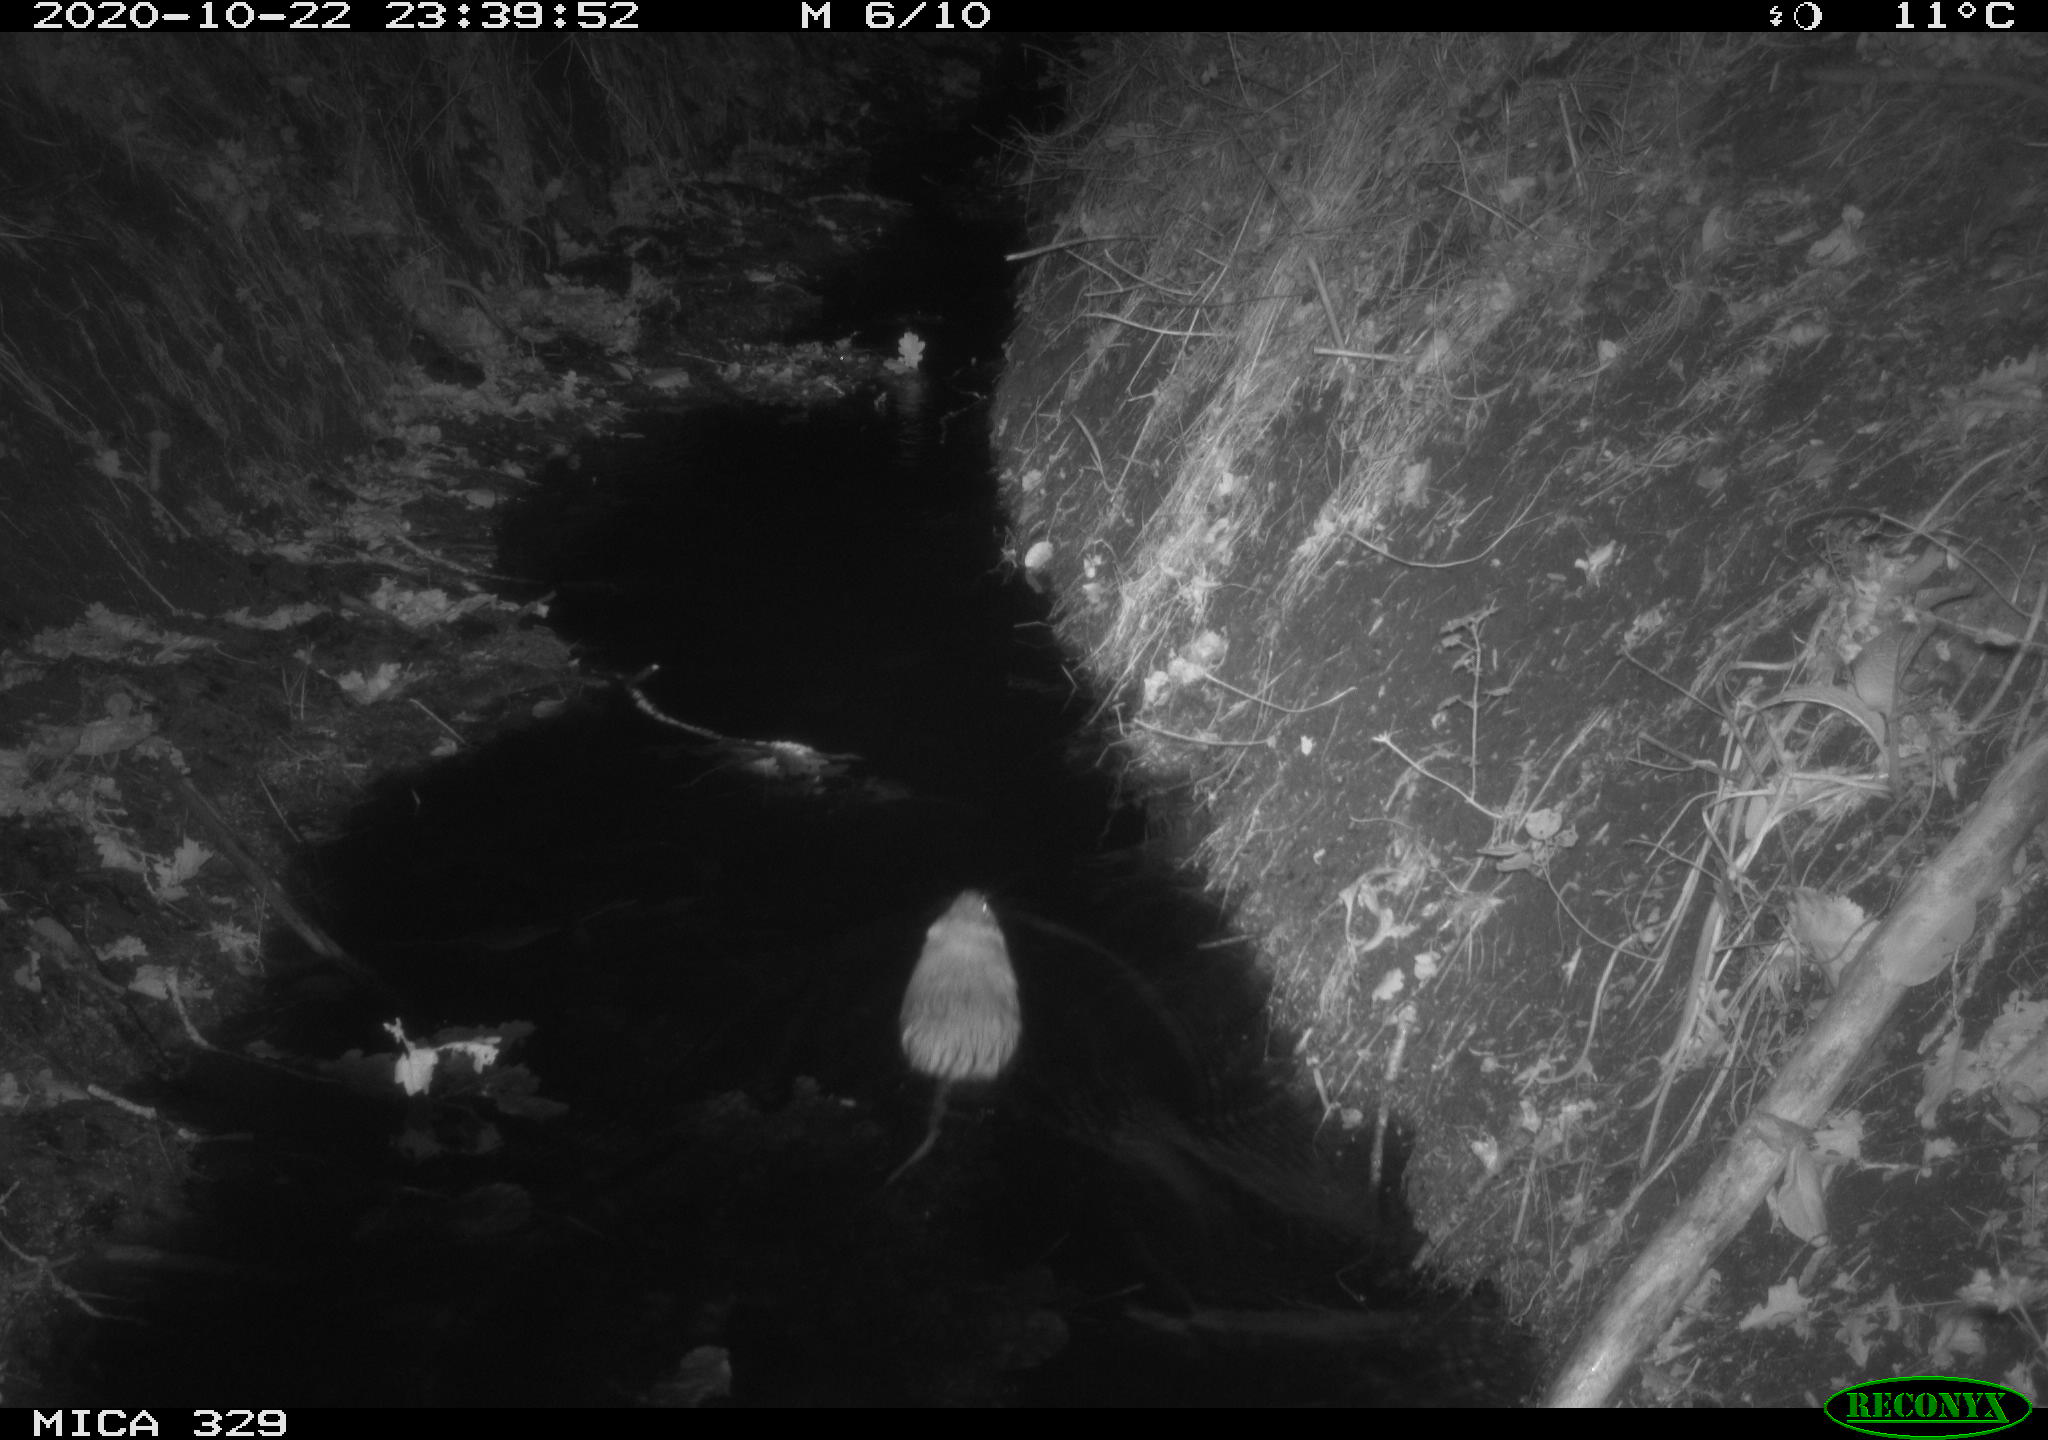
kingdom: Animalia
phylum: Chordata
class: Mammalia
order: Rodentia
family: Cricetidae
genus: Ondatra
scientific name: Ondatra zibethicus
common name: Muskrat
